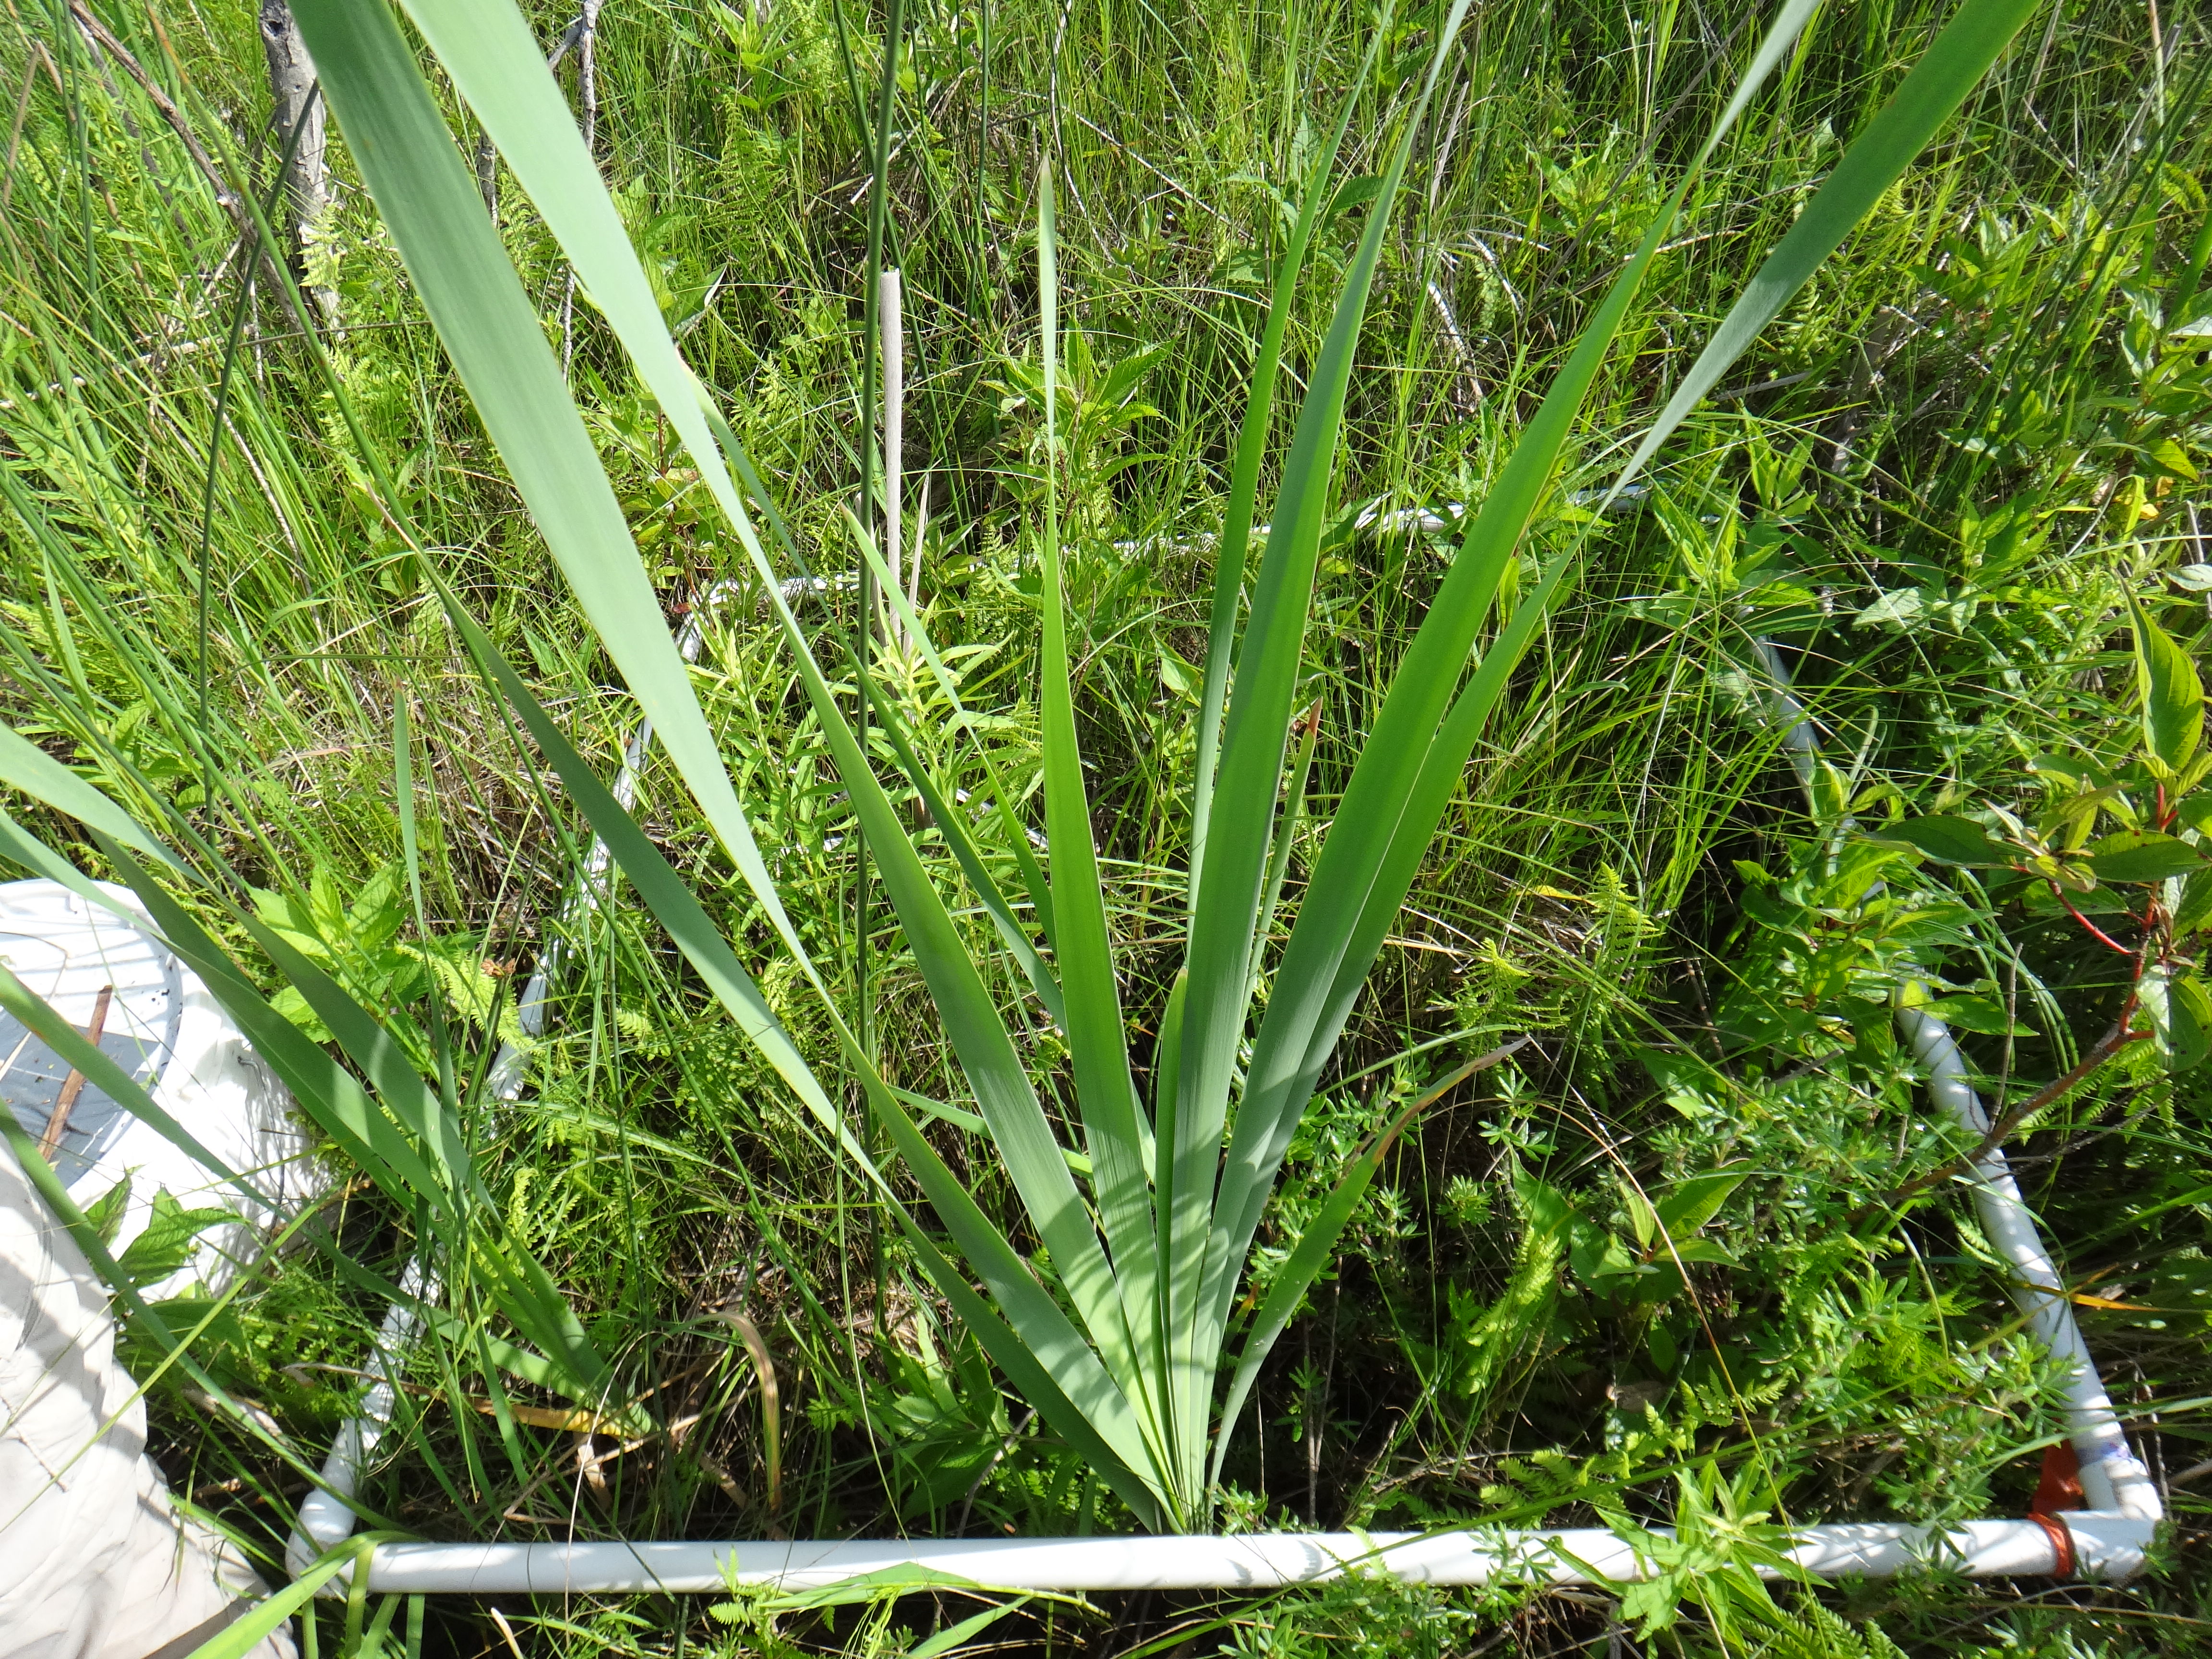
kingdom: Plantae
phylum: Tracheophyta
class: Liliopsida
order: Poales
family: Poaceae
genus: Bromus
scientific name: Bromus ciliatus
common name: Fringe brome
